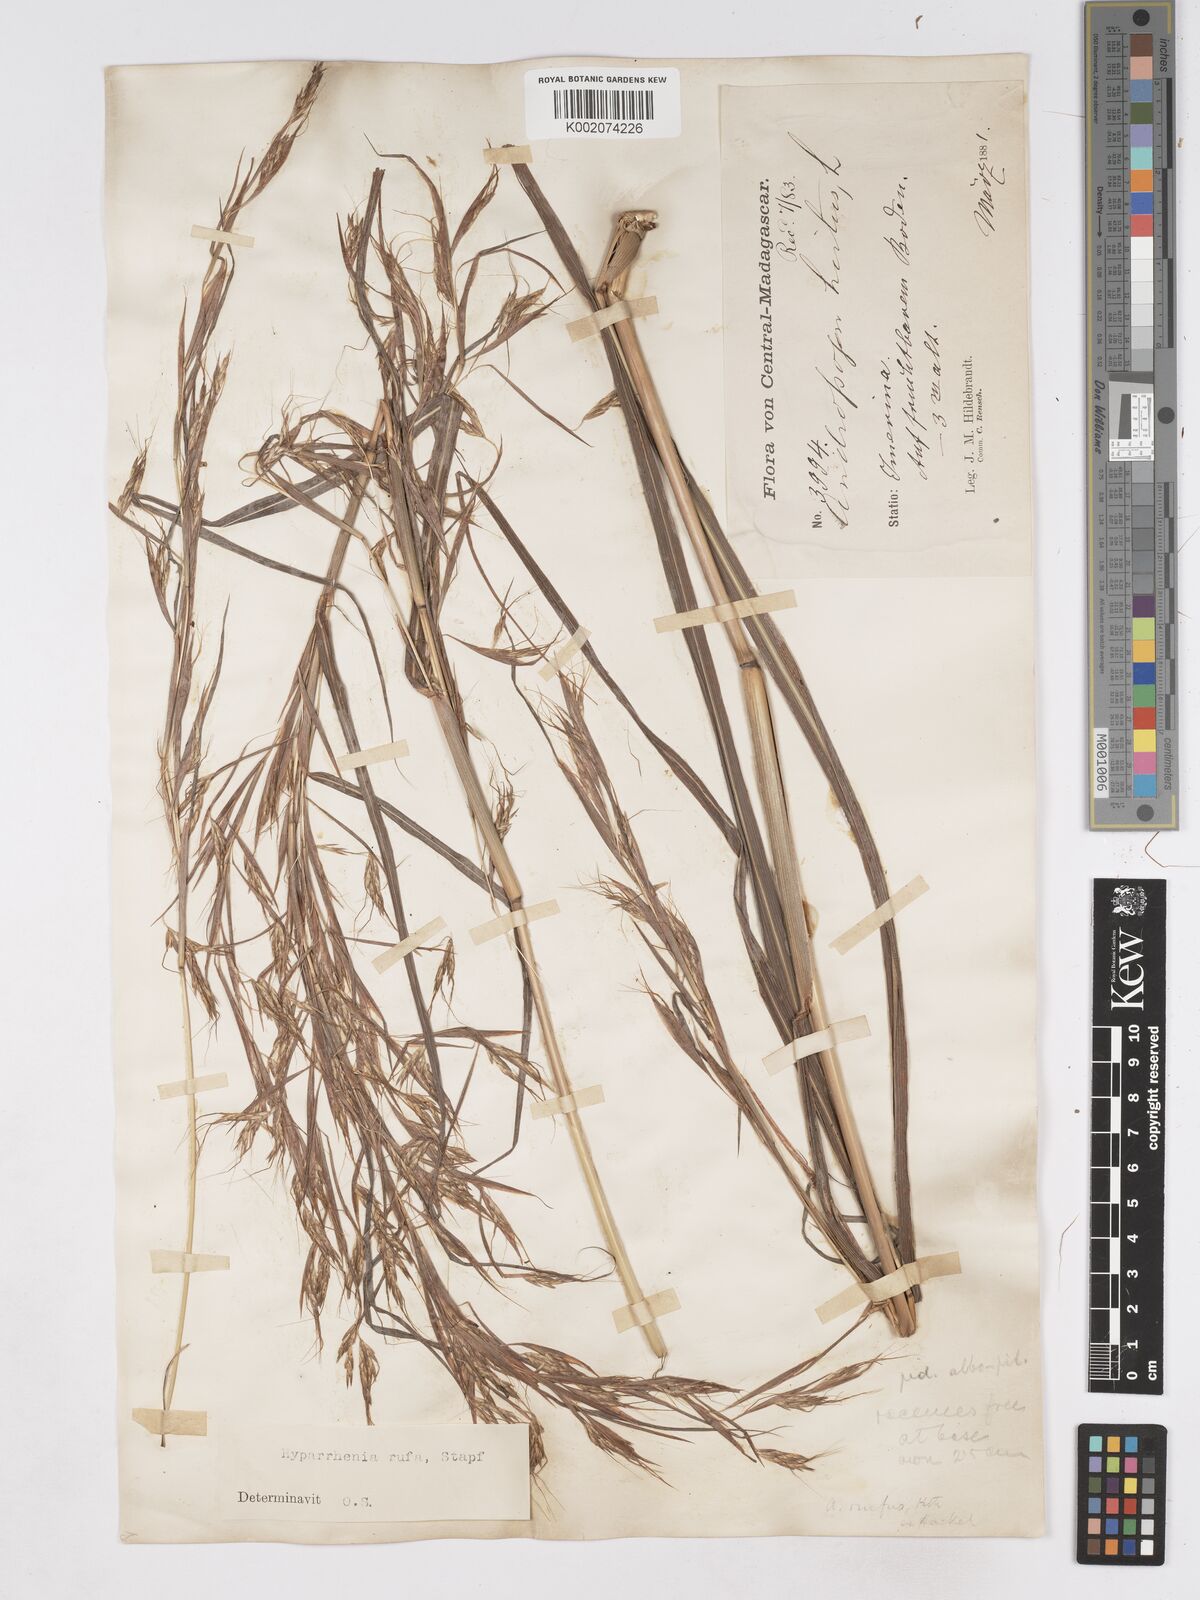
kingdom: Plantae
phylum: Tracheophyta
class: Liliopsida
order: Poales
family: Poaceae
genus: Hyparrhenia
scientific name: Hyparrhenia rufa
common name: Jaraguagrass
